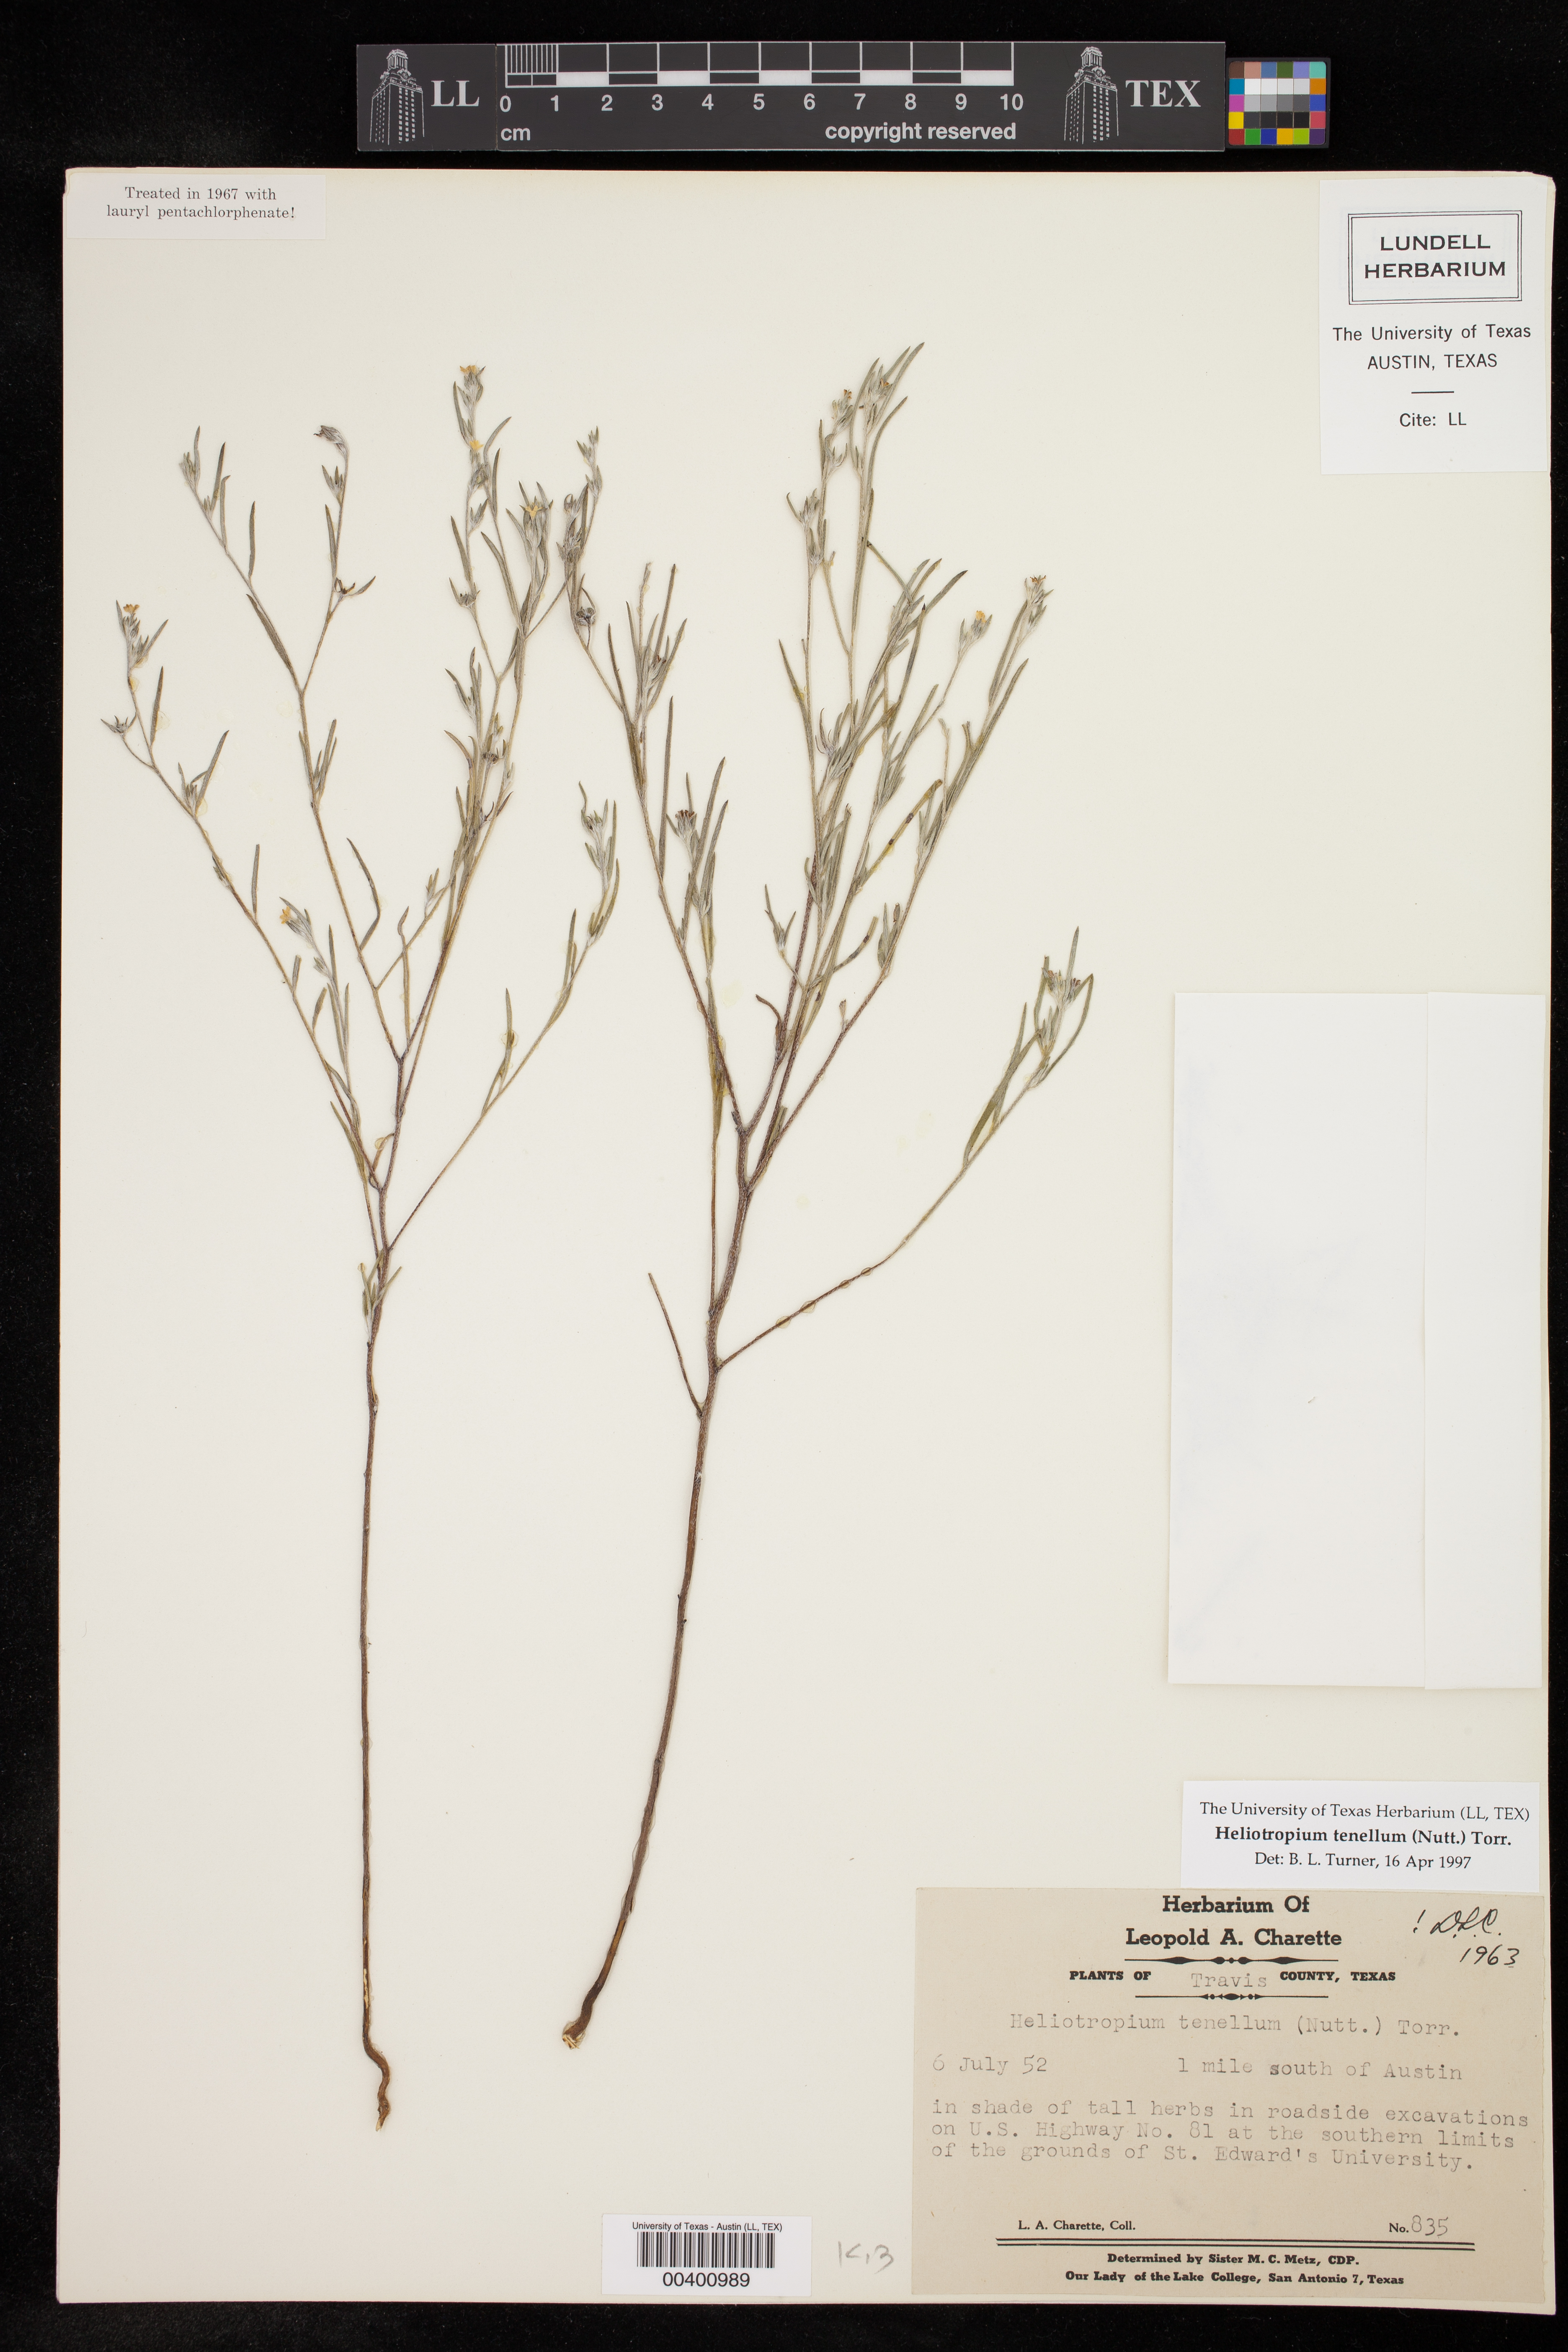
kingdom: Plantae
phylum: Tracheophyta
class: Magnoliopsida
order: Boraginales
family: Heliotropiaceae
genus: Euploca
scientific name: Euploca tenella
